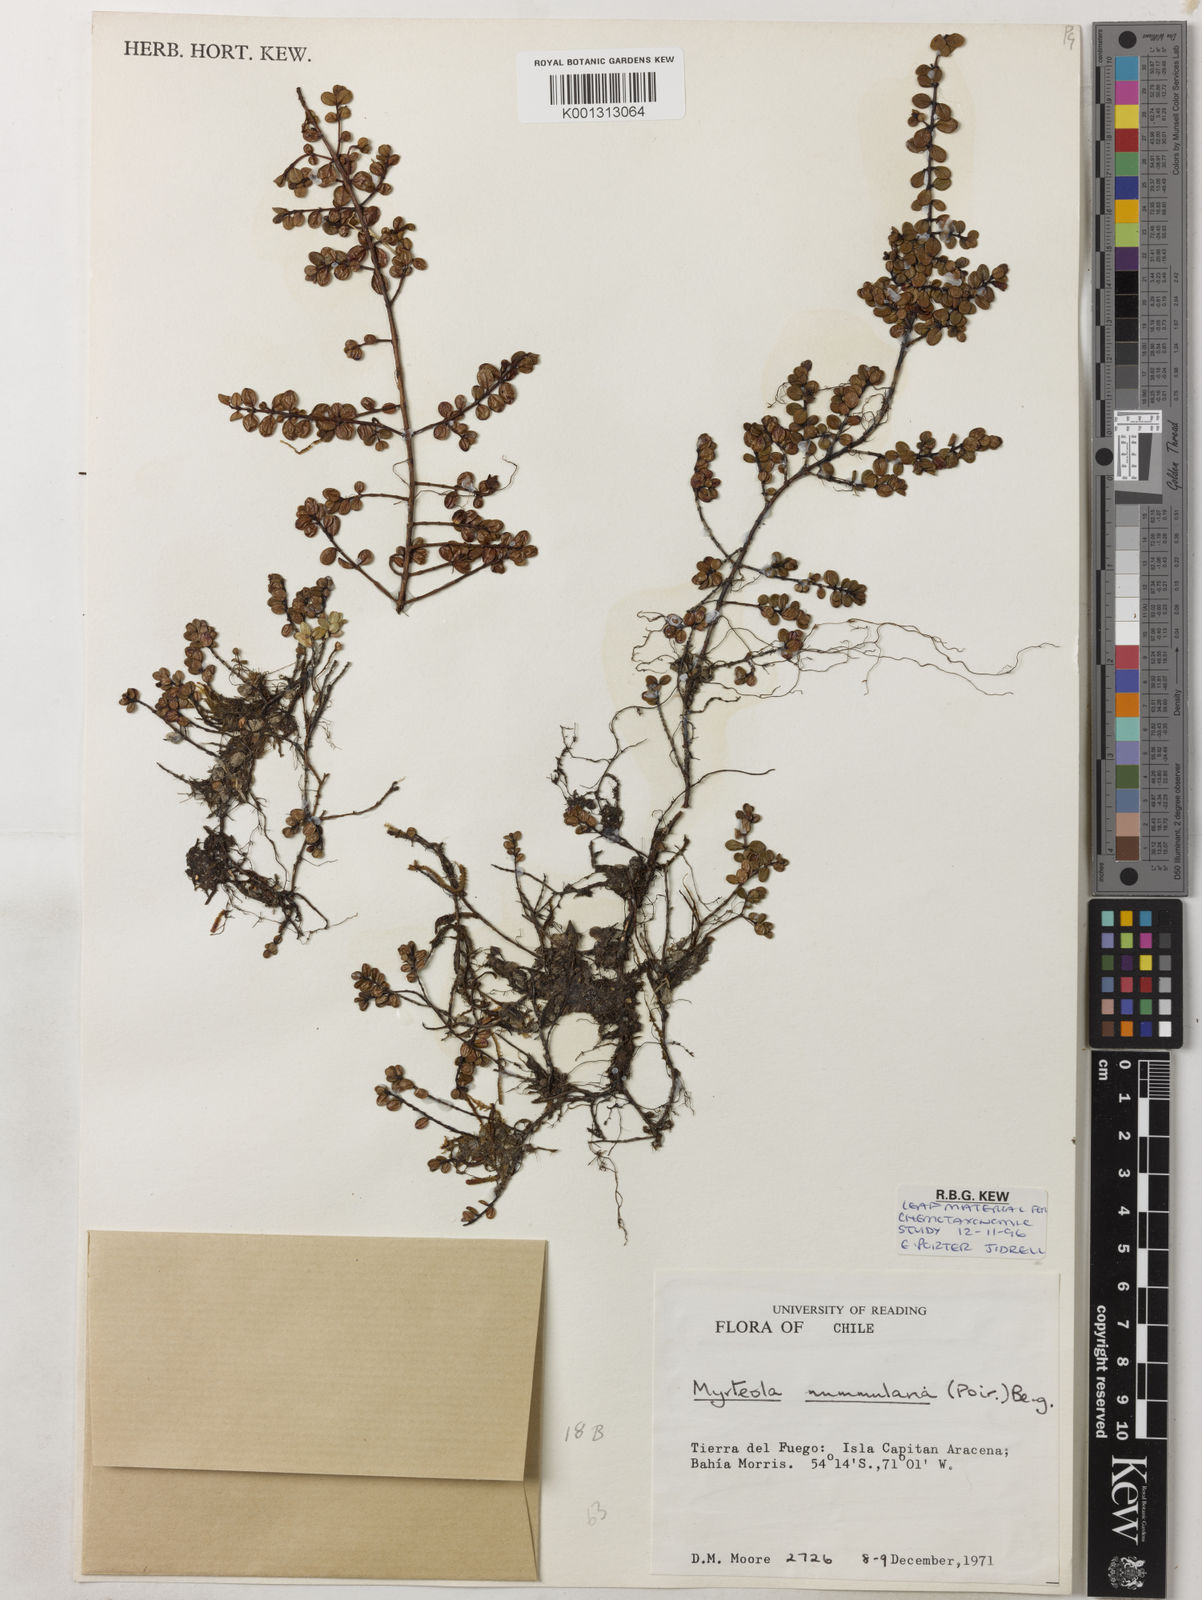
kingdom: Plantae
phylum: Tracheophyta
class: Magnoliopsida
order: Myrtales
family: Myrtaceae
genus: Myrteola
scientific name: Myrteola nummularia
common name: Cranberry-myrtle
